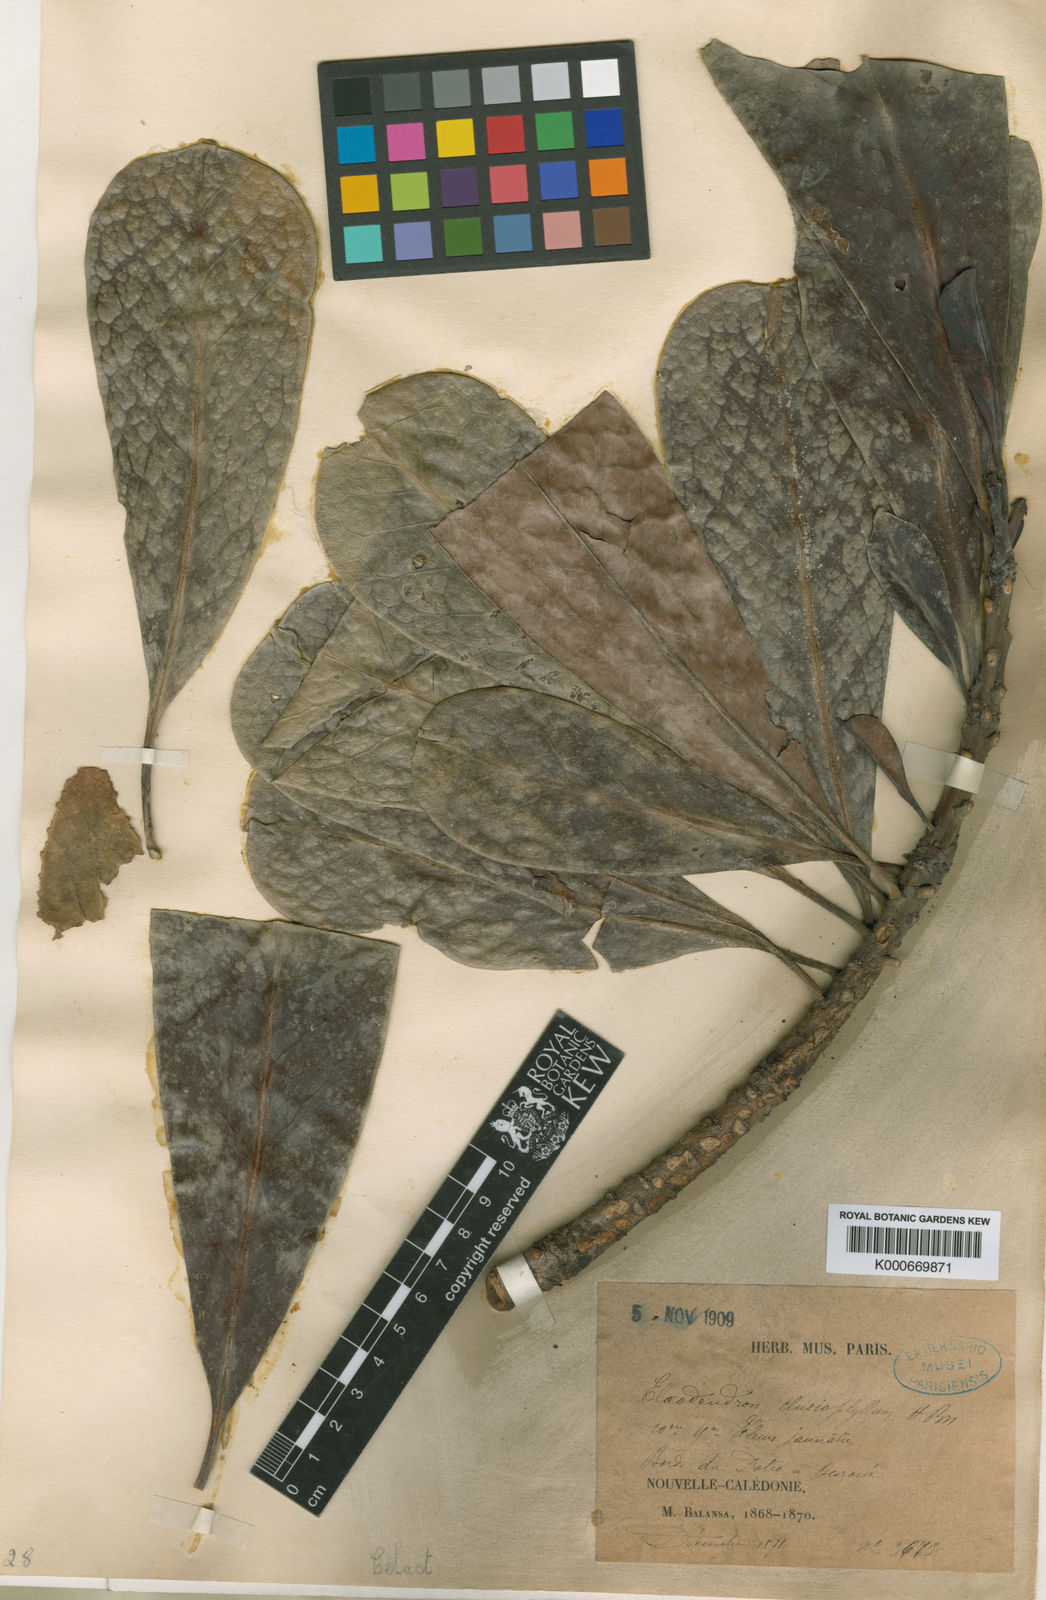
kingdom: Plantae
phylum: Tracheophyta
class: Magnoliopsida
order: Celastrales
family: Celastraceae
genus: Elaeodendron
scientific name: Elaeodendron cunninghamii
